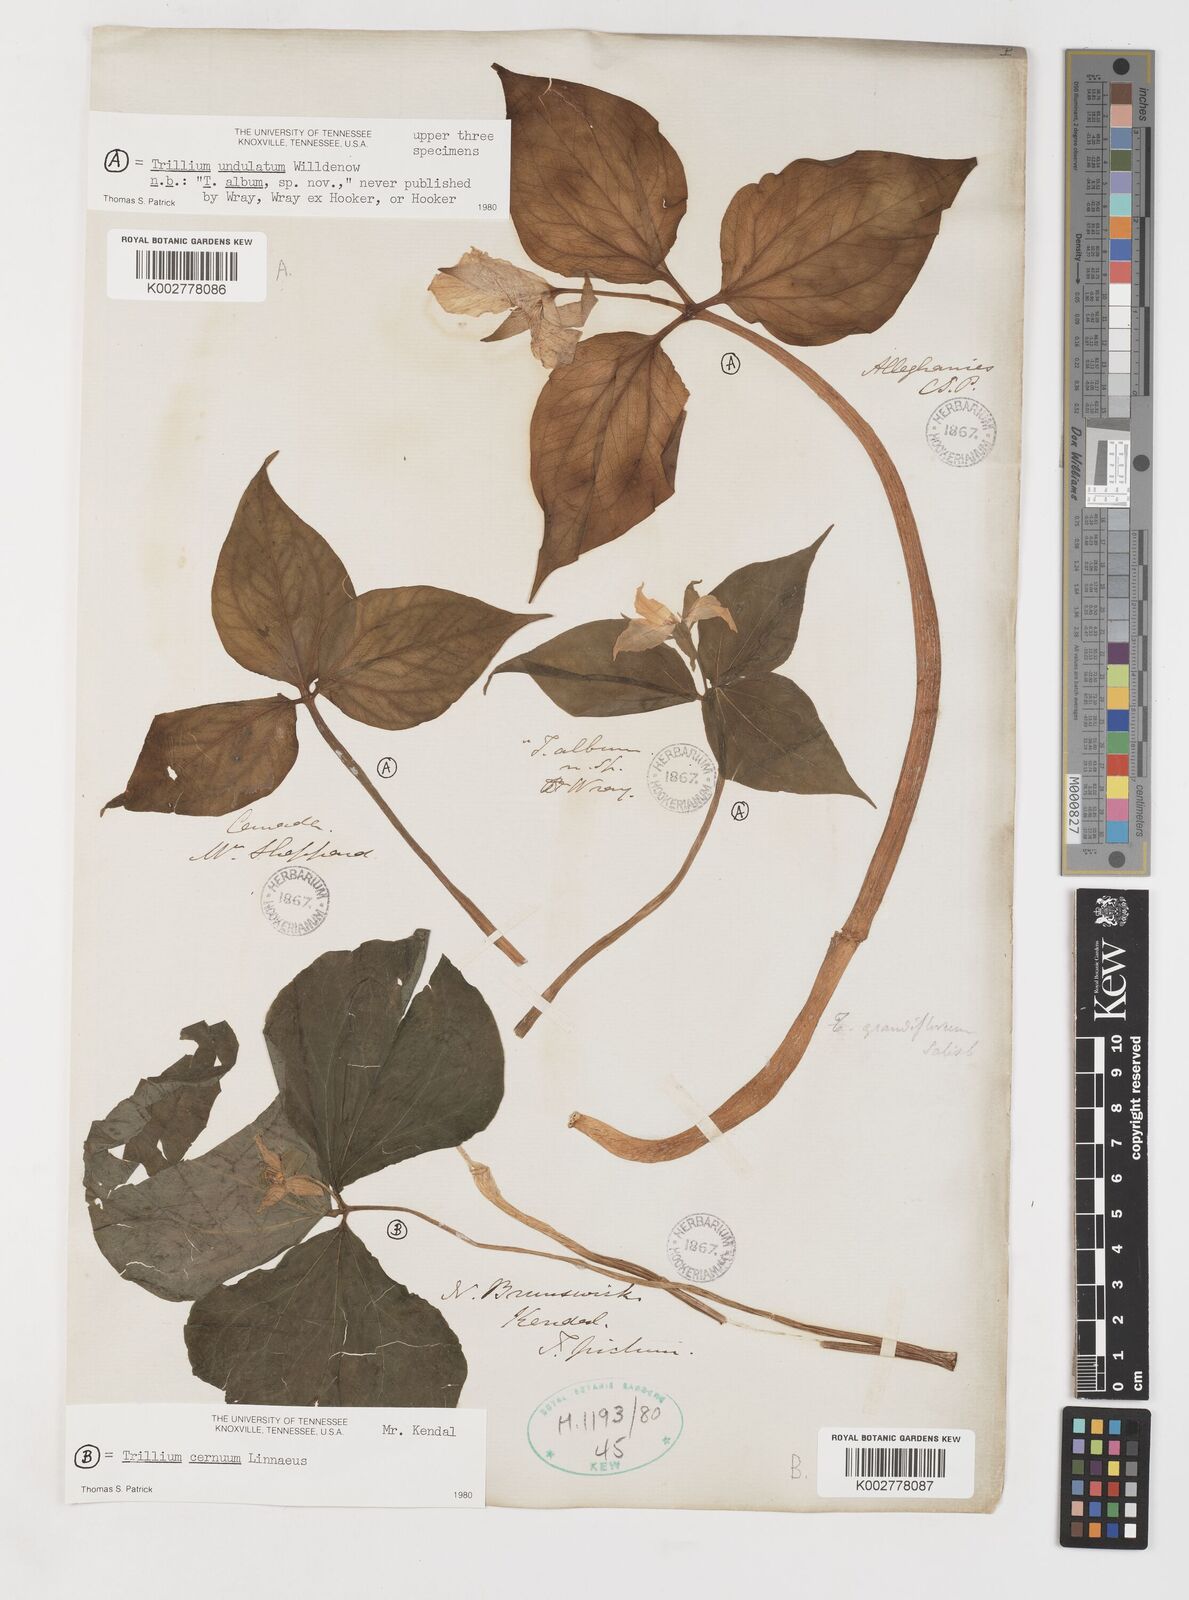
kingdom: Plantae
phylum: Tracheophyta
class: Liliopsida
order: Liliales
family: Melanthiaceae
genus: Trillium
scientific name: Trillium undulatum
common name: Paint trillium
